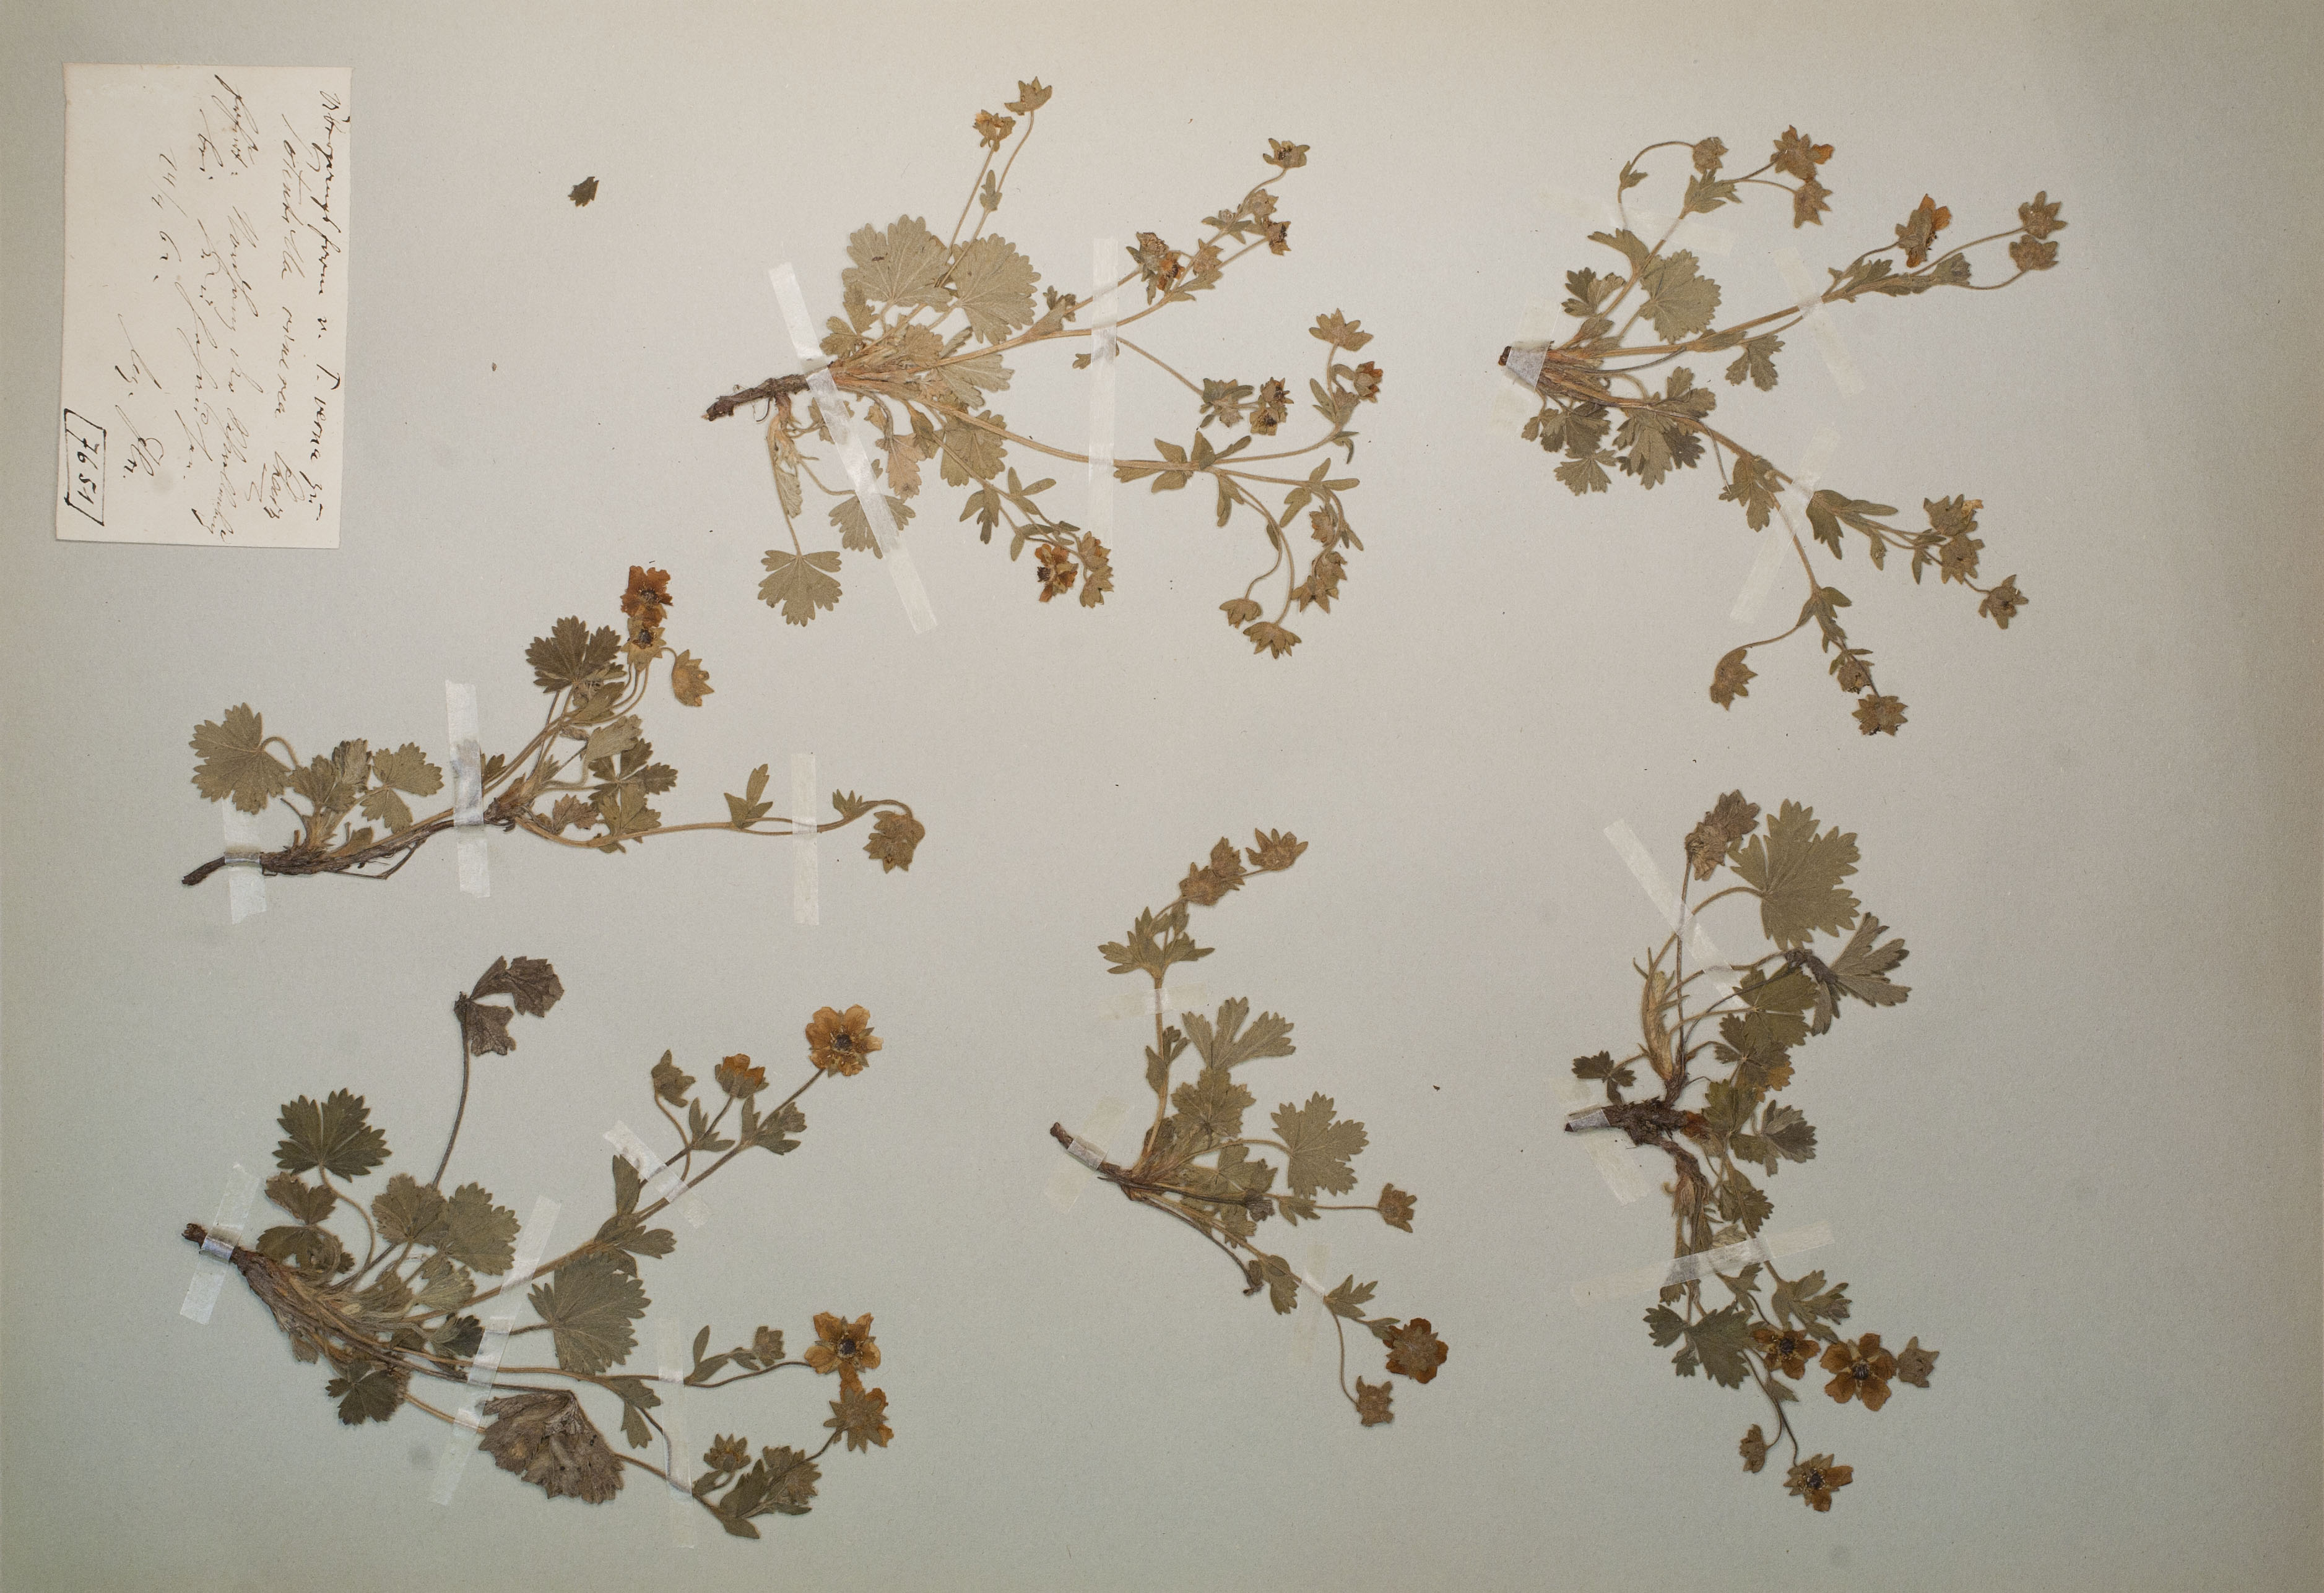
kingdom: Plantae
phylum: Tracheophyta
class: Magnoliopsida
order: Rosales
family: Rosaceae
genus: Potentilla
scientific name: Potentilla cinerea
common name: Ashy cinquefoil
